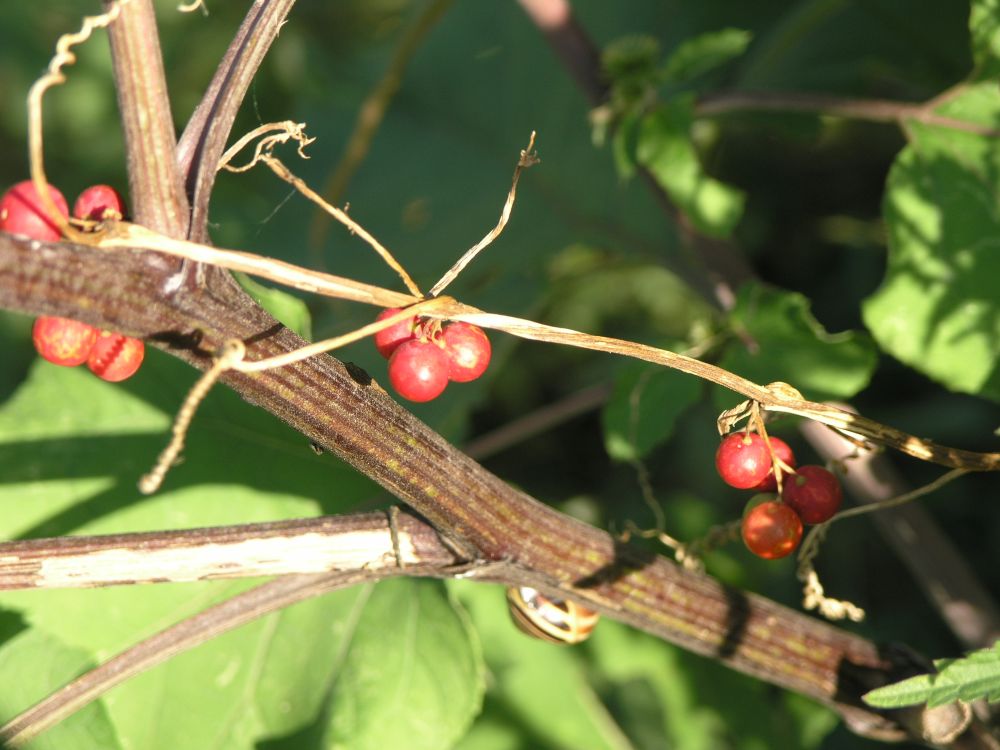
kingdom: Plantae
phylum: Tracheophyta
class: Magnoliopsida
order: Cucurbitales
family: Cucurbitaceae
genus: Bryonia
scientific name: Bryonia dioica
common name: White bryony
